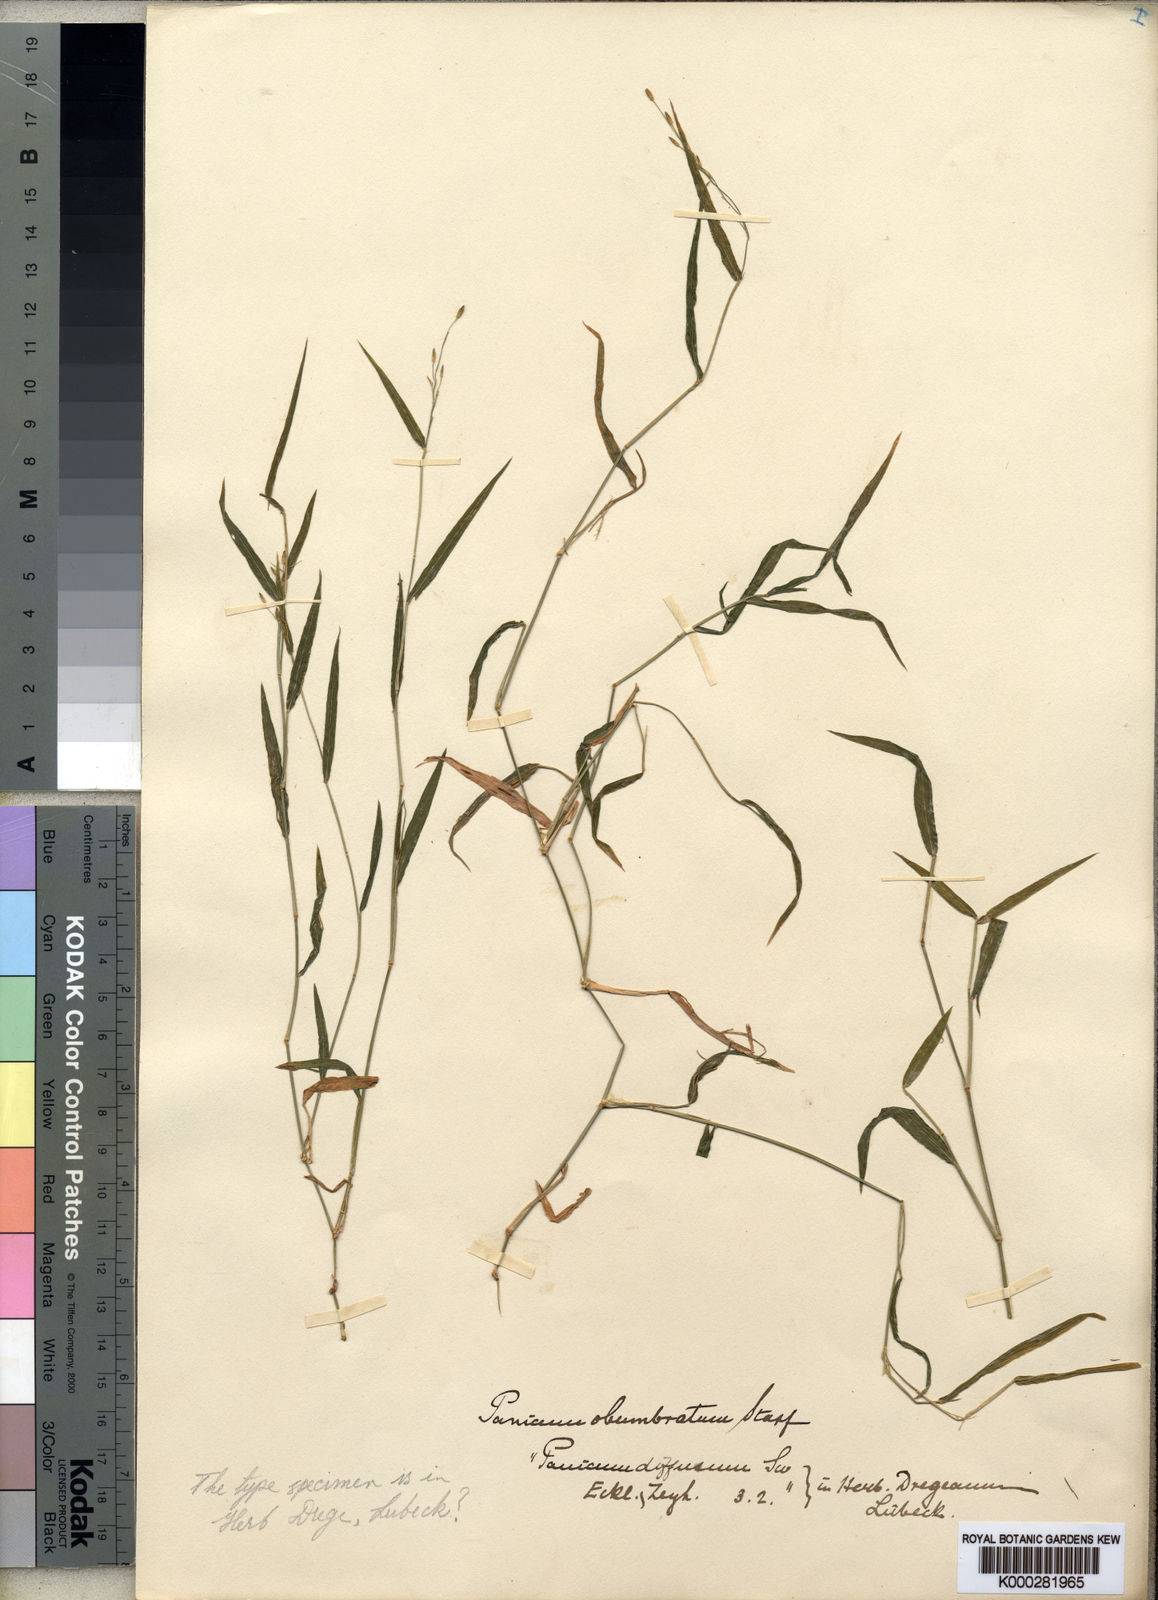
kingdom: Plantae
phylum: Tracheophyta
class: Liliopsida
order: Poales
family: Poaceae
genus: Urochloa
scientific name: Urochloa chusqueoides
